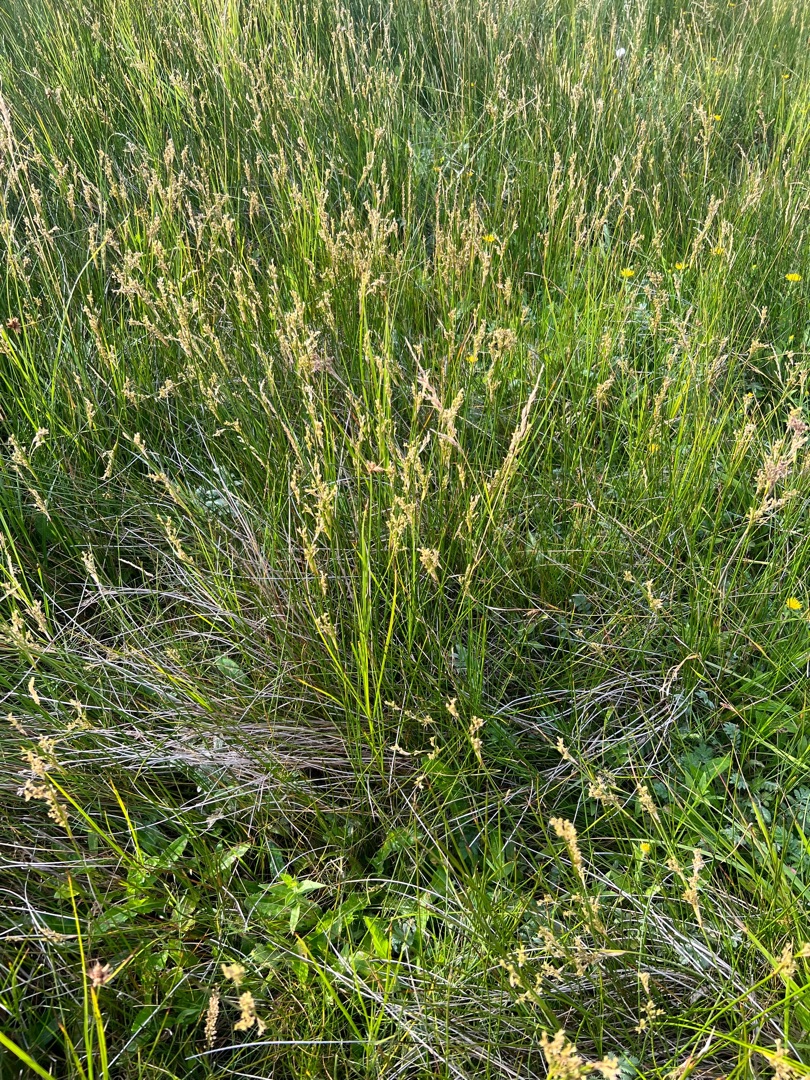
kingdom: Plantae
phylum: Tracheophyta
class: Liliopsida
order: Poales
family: Juncaceae
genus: Juncus
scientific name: Juncus maritimus
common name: Strand-siv
